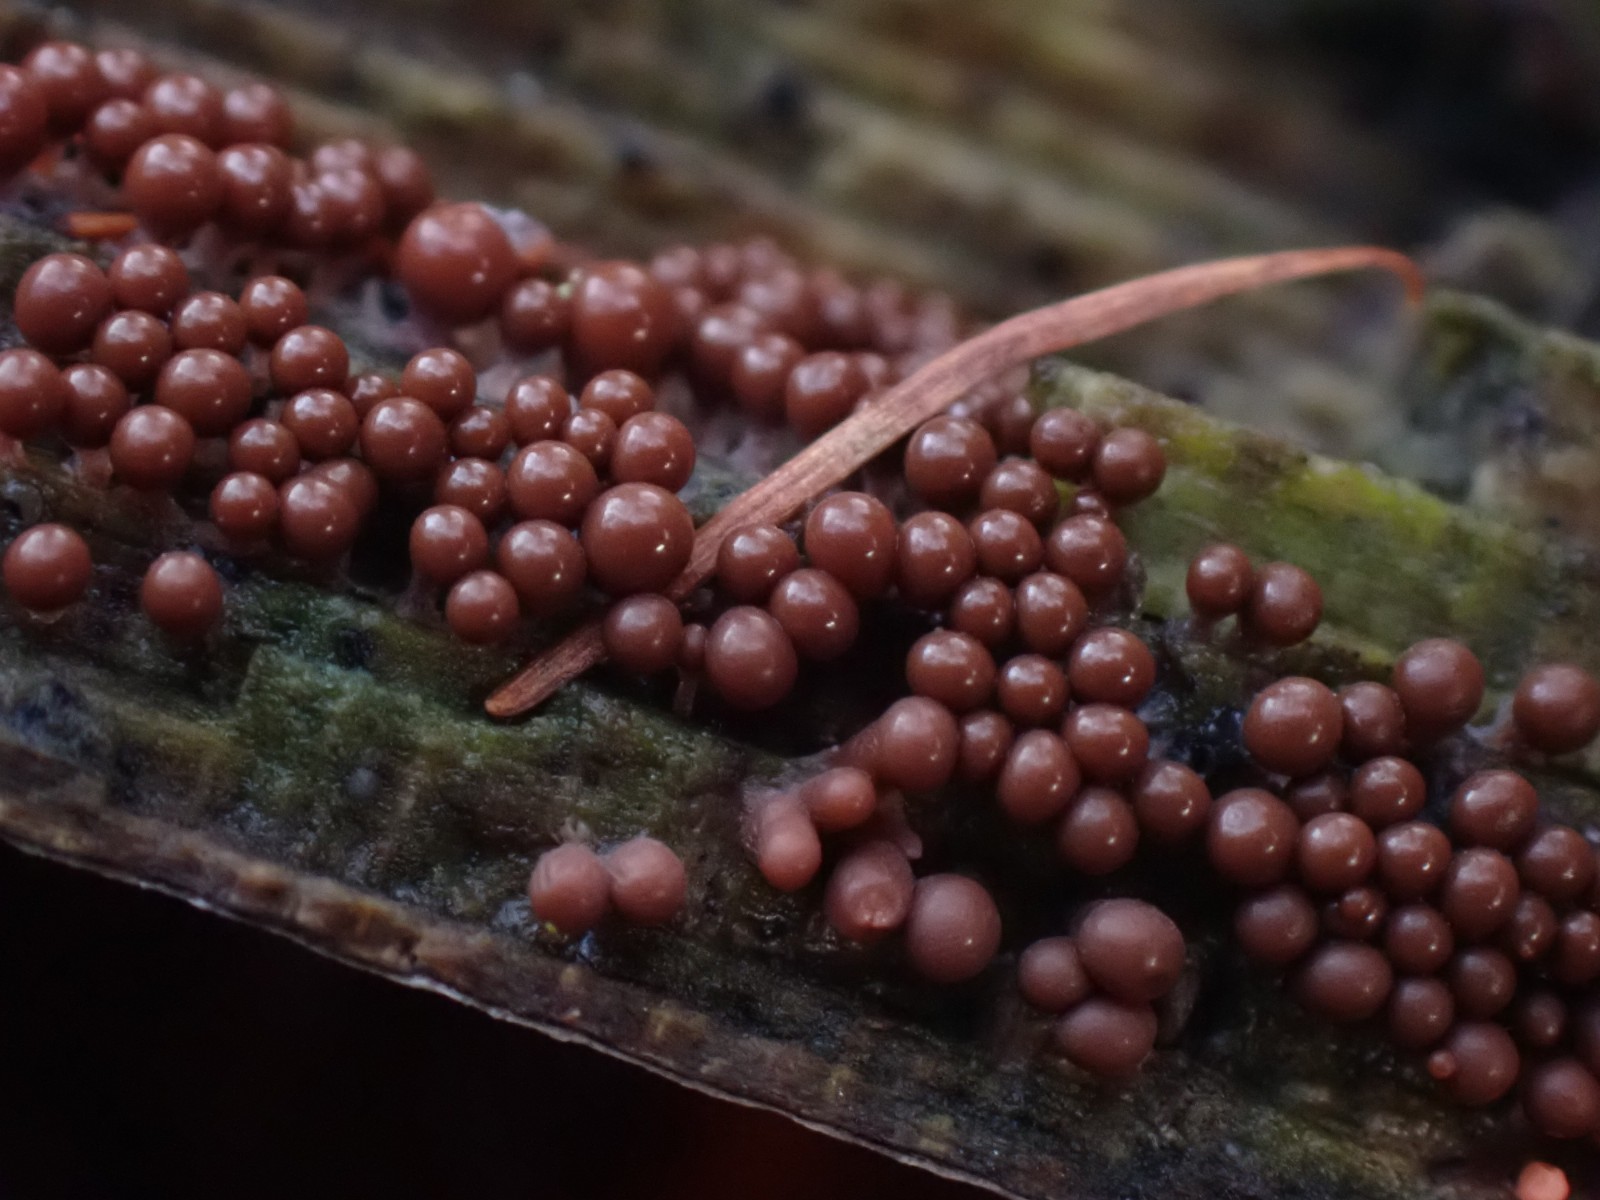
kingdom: Protozoa
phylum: Mycetozoa
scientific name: Mycetozoa
